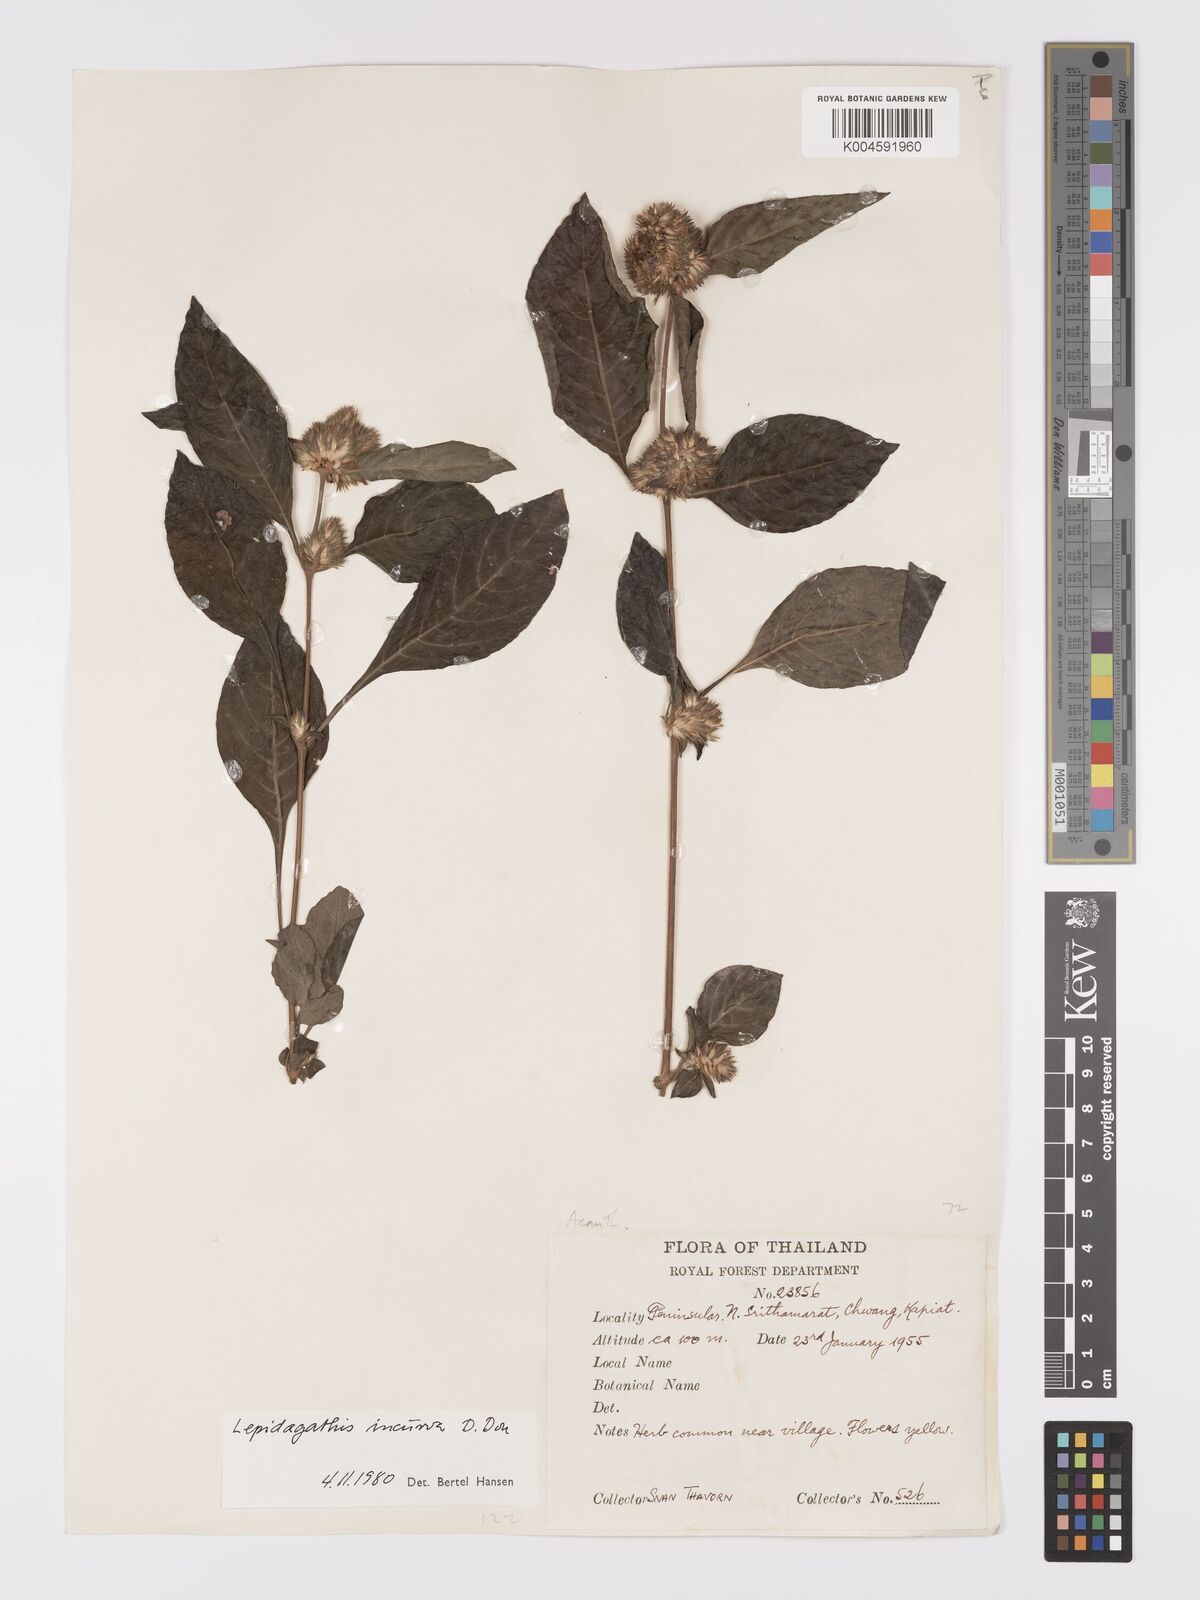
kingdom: Plantae
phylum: Tracheophyta
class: Magnoliopsida
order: Lamiales
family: Acanthaceae
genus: Lepidagathis
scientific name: Lepidagathis incurva
